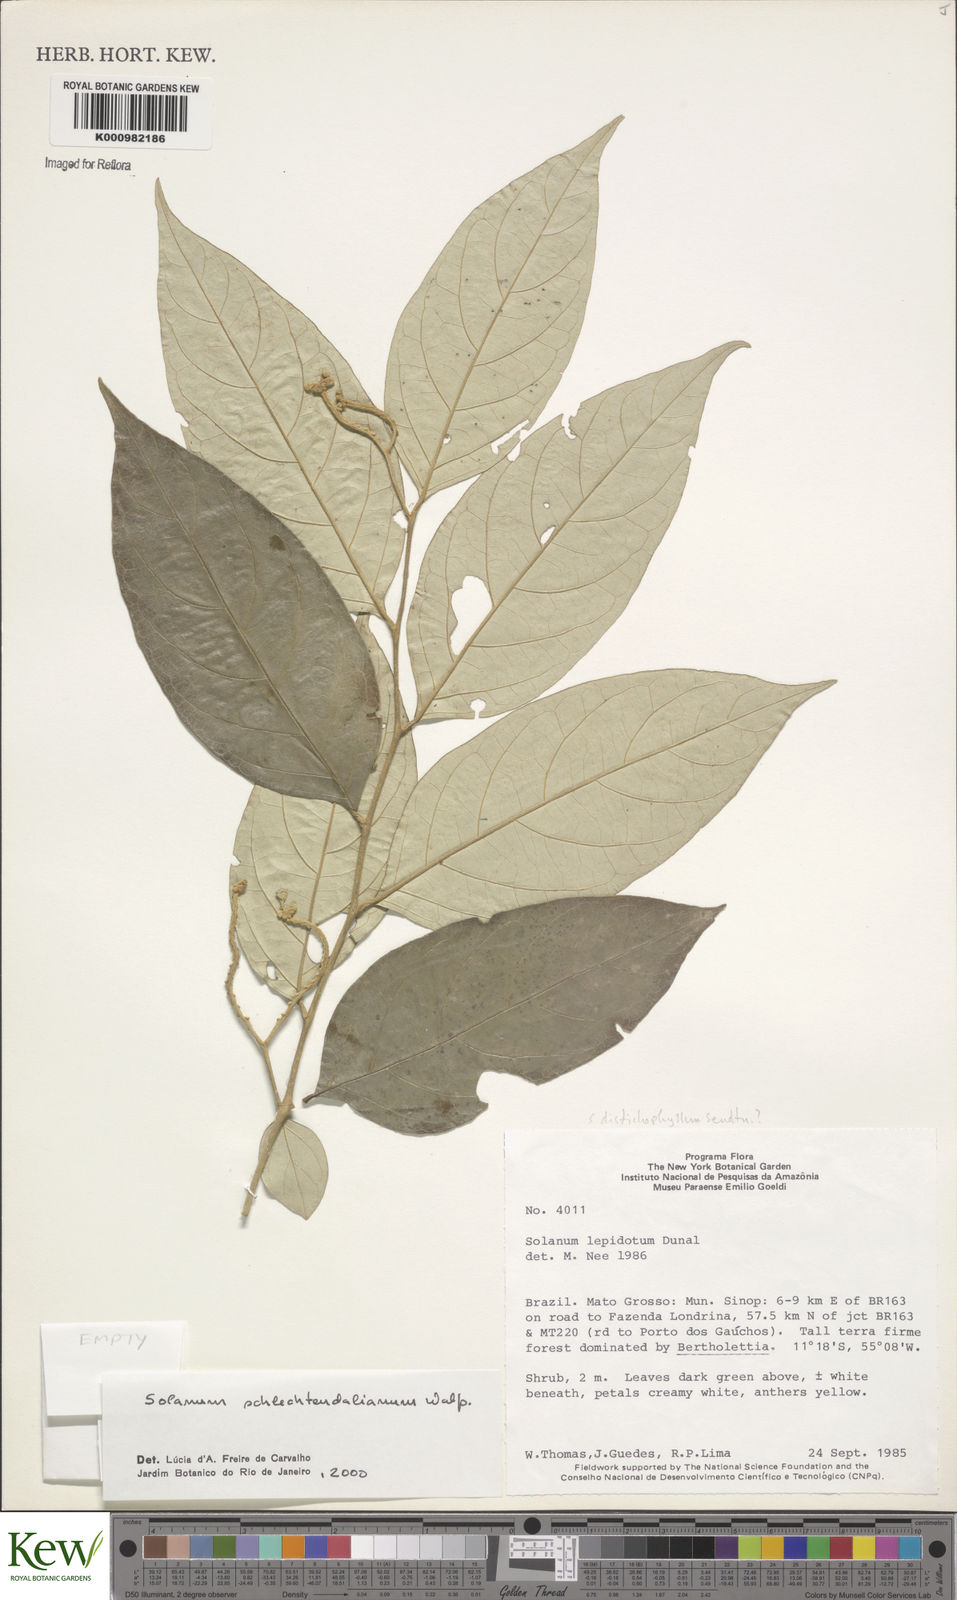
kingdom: Plantae
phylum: Tracheophyta
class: Magnoliopsida
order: Solanales
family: Solanaceae
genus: Solanum
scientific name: Solanum schlechtendalianum
